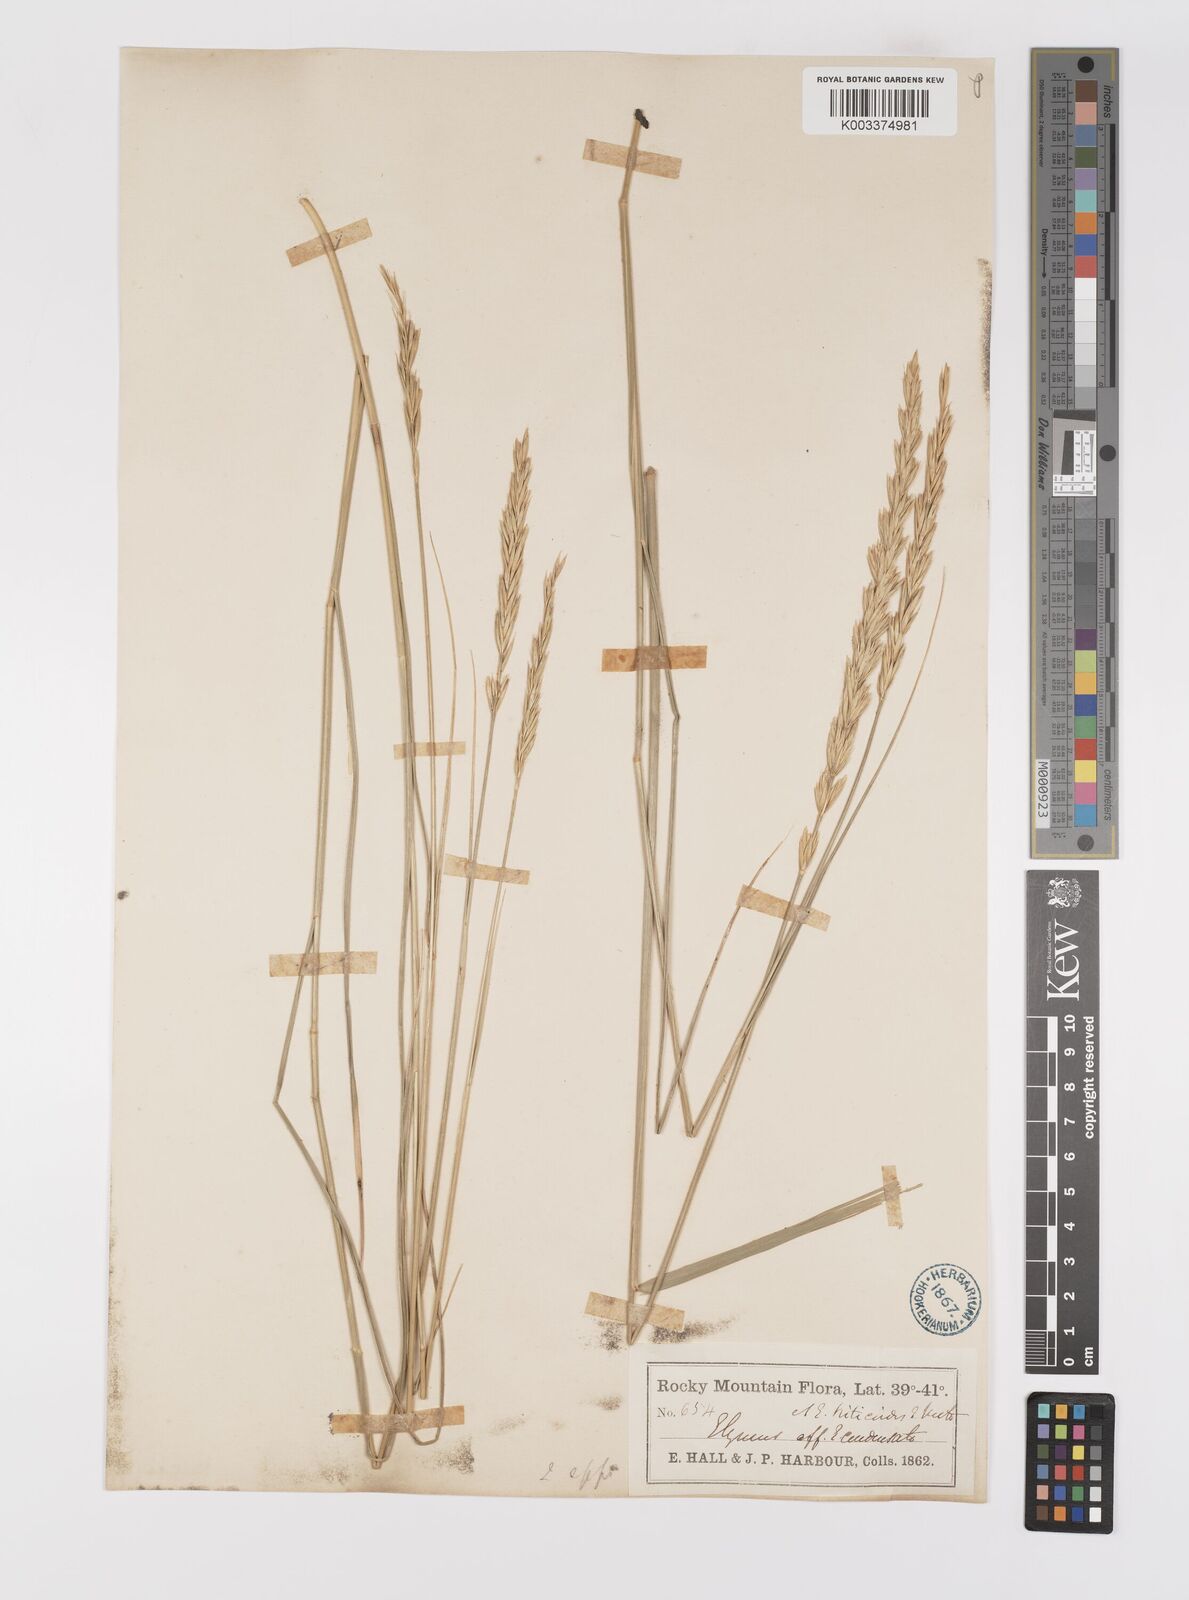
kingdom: Plantae
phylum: Tracheophyta
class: Liliopsida
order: Poales
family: Poaceae
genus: Elymus
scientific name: Elymus lanceolatus
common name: Thick-spike wheatgrass
